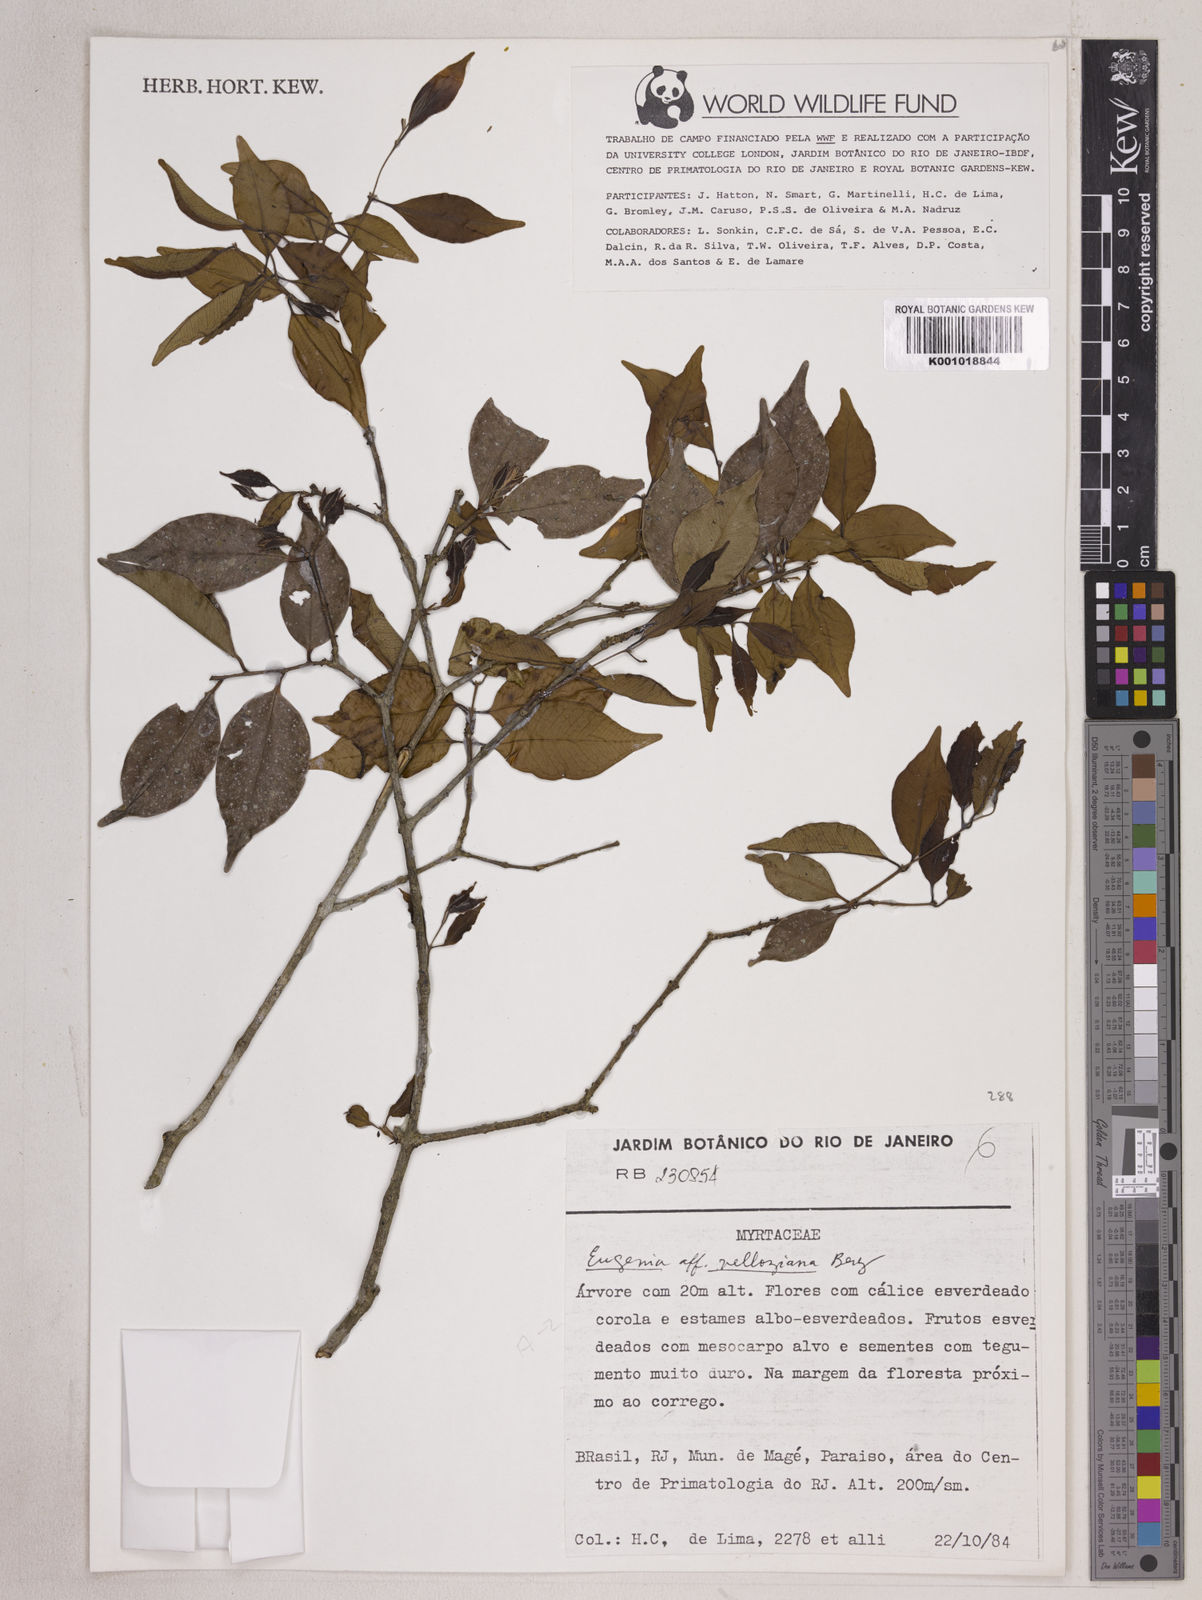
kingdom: Plantae
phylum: Tracheophyta
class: Magnoliopsida
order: Myrtales
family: Myrtaceae
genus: Eugenia
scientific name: Eugenia
